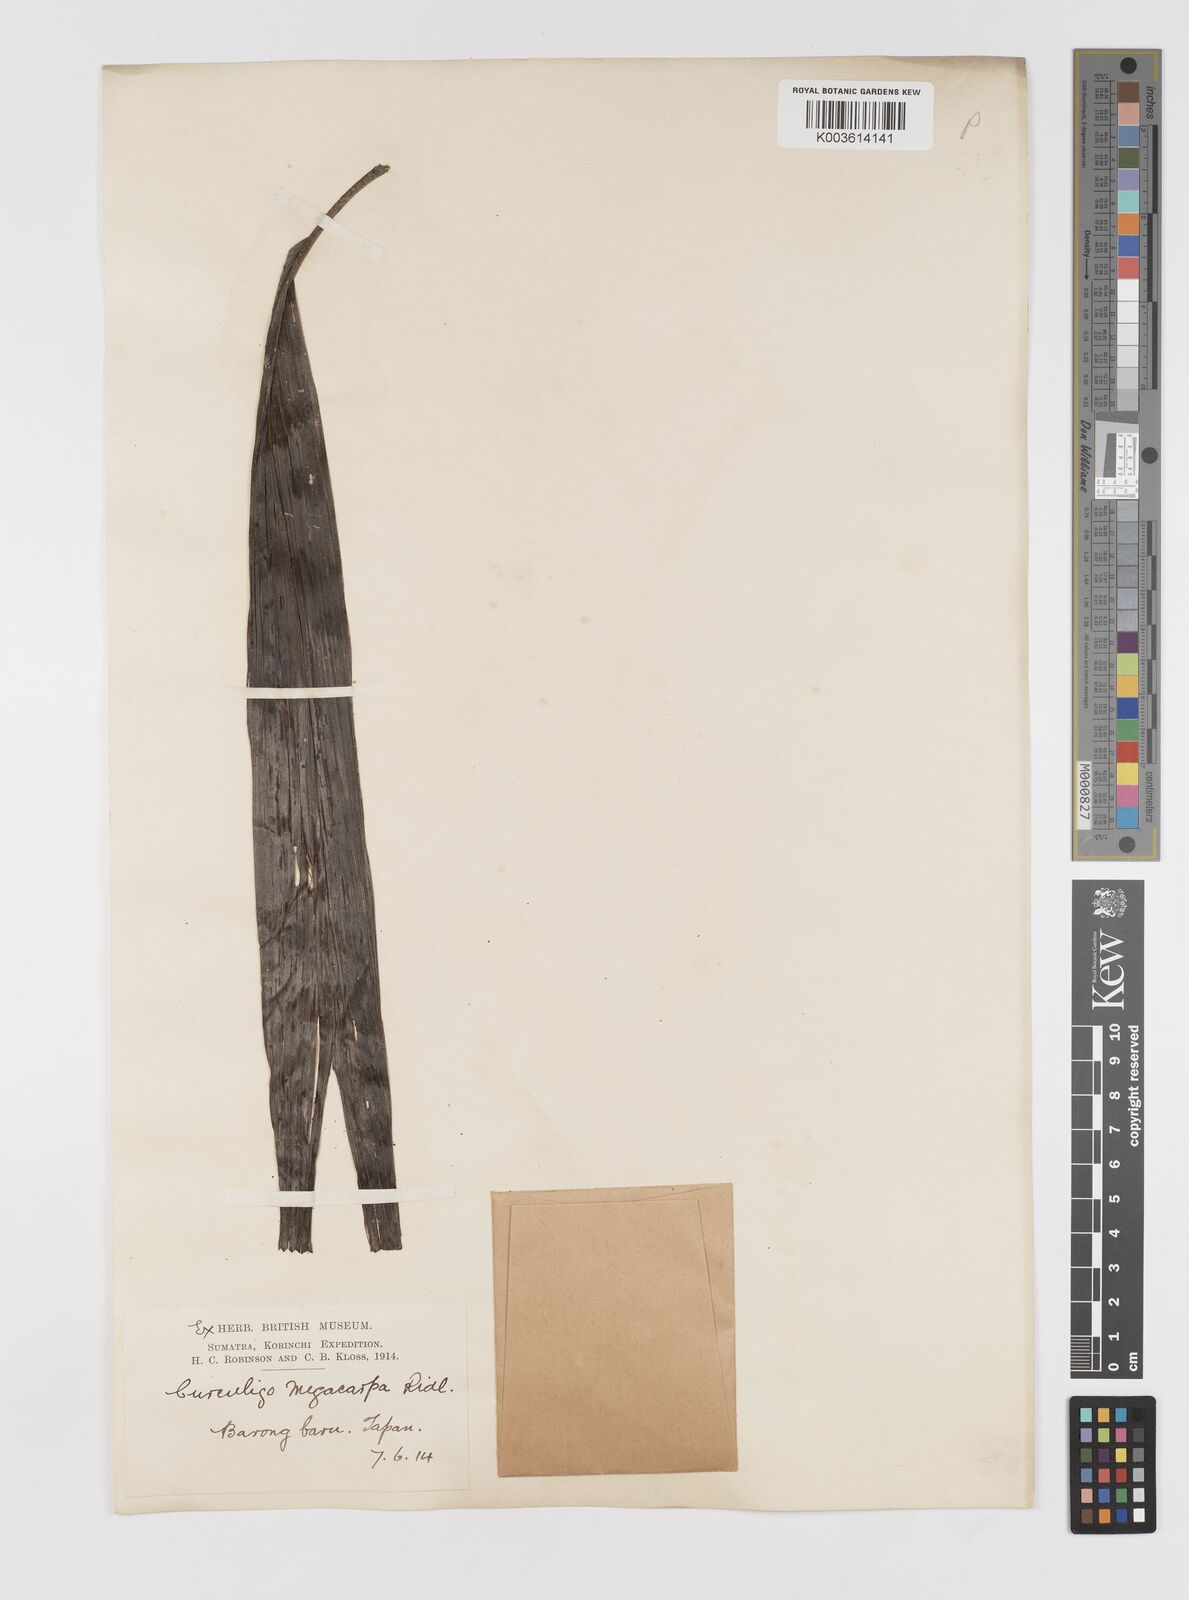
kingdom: Plantae
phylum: Tracheophyta
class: Liliopsida
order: Asparagales
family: Hypoxidaceae
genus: Curculigo
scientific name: Curculigo latifolia
